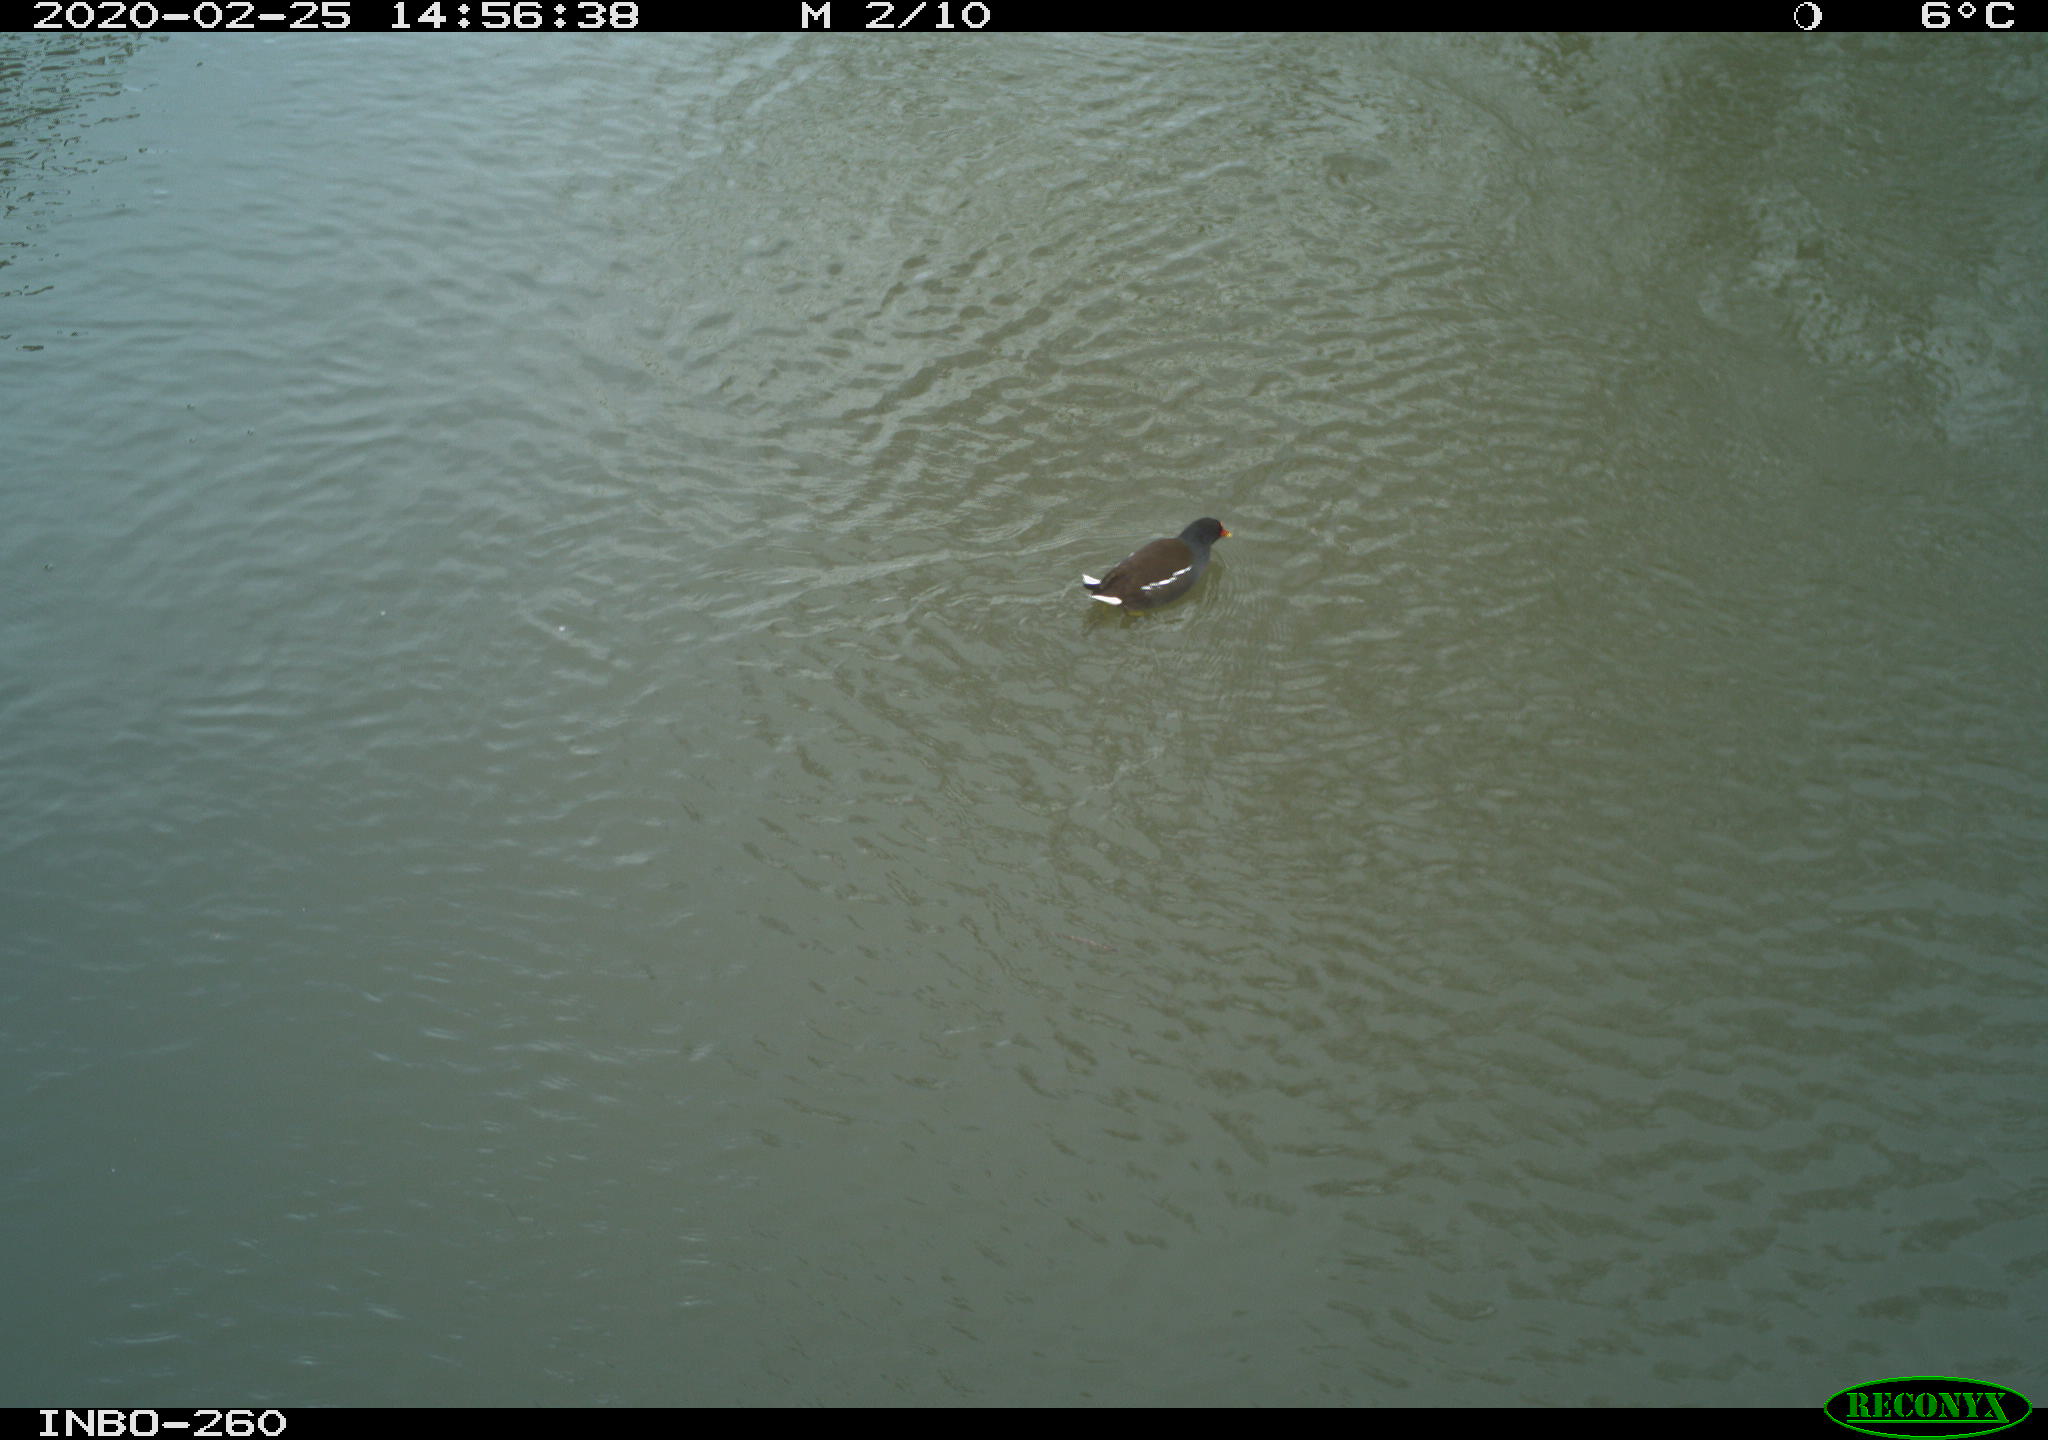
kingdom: Animalia
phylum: Chordata
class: Aves
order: Gruiformes
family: Rallidae
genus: Gallinula
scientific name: Gallinula chloropus
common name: Common moorhen
